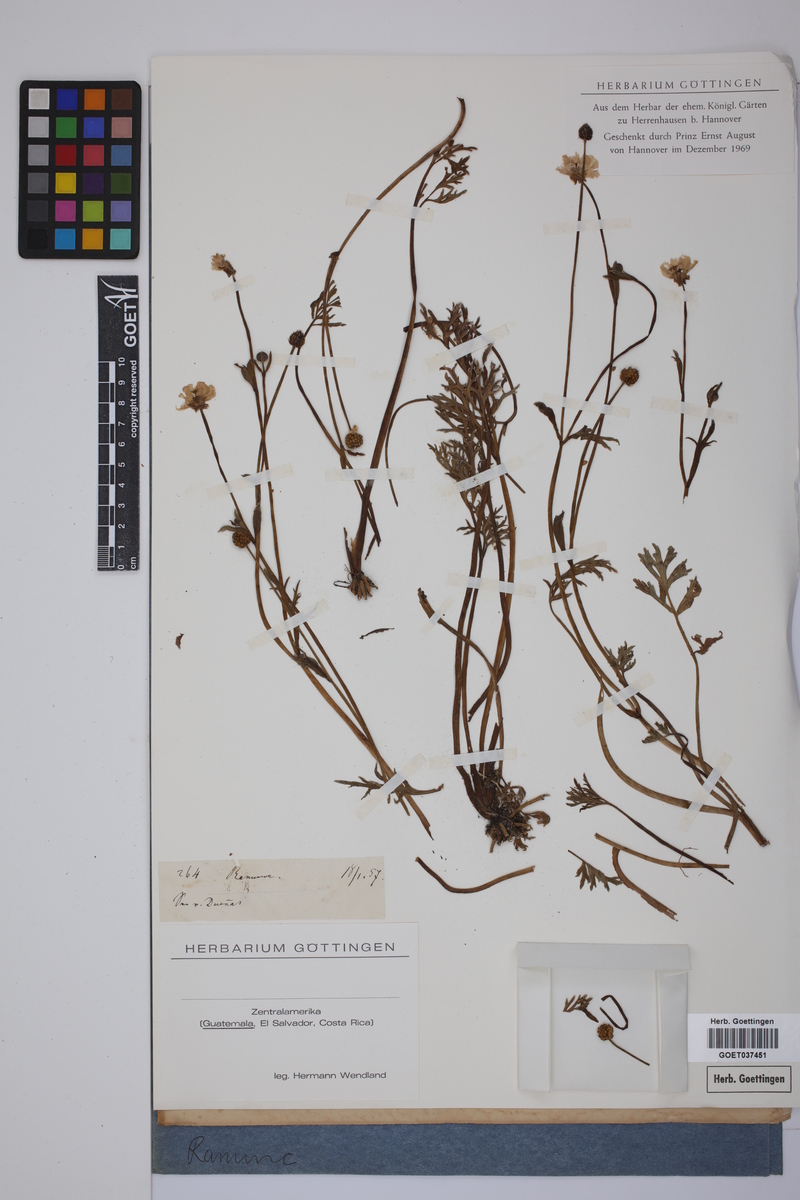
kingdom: Plantae
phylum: Tracheophyta
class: Magnoliopsida
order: Ranunculales
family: Ranunculaceae
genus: Ranunculus
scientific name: Ranunculus
